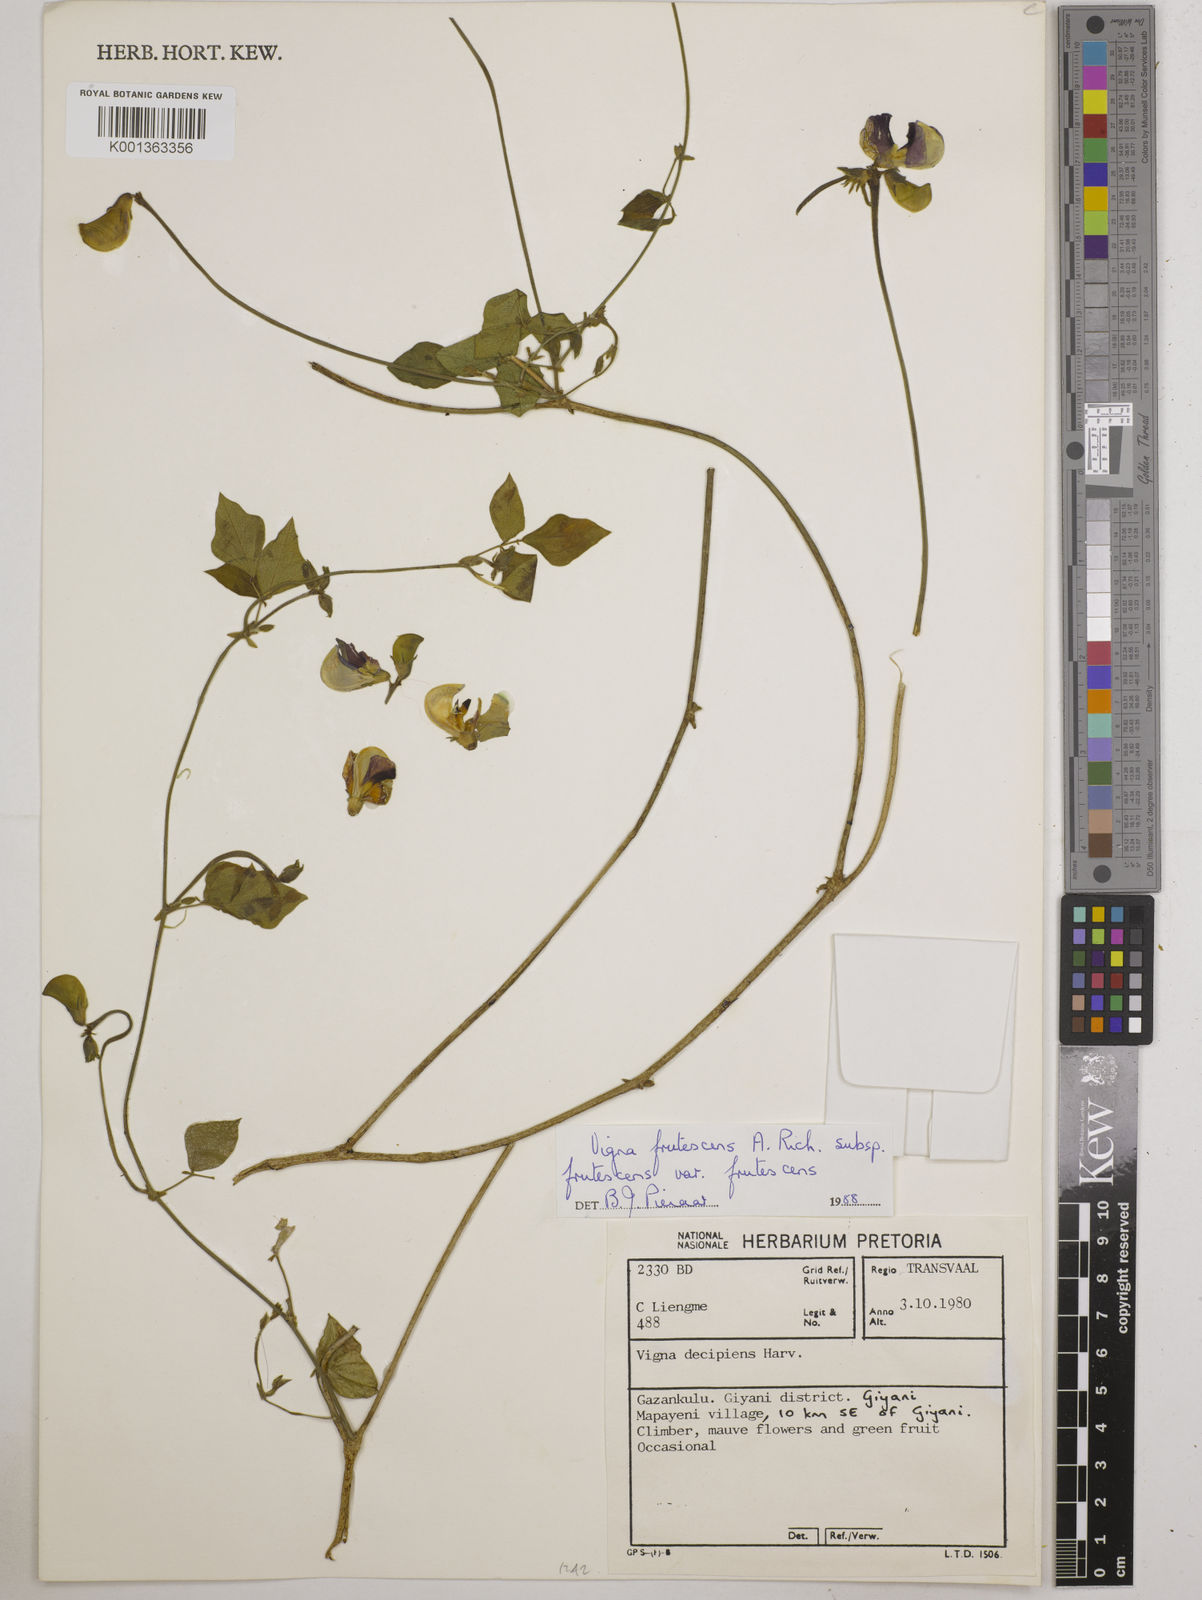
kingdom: Plantae
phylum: Tracheophyta
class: Magnoliopsida
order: Fabales
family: Fabaceae
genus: Vigna
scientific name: Vigna frutescens
